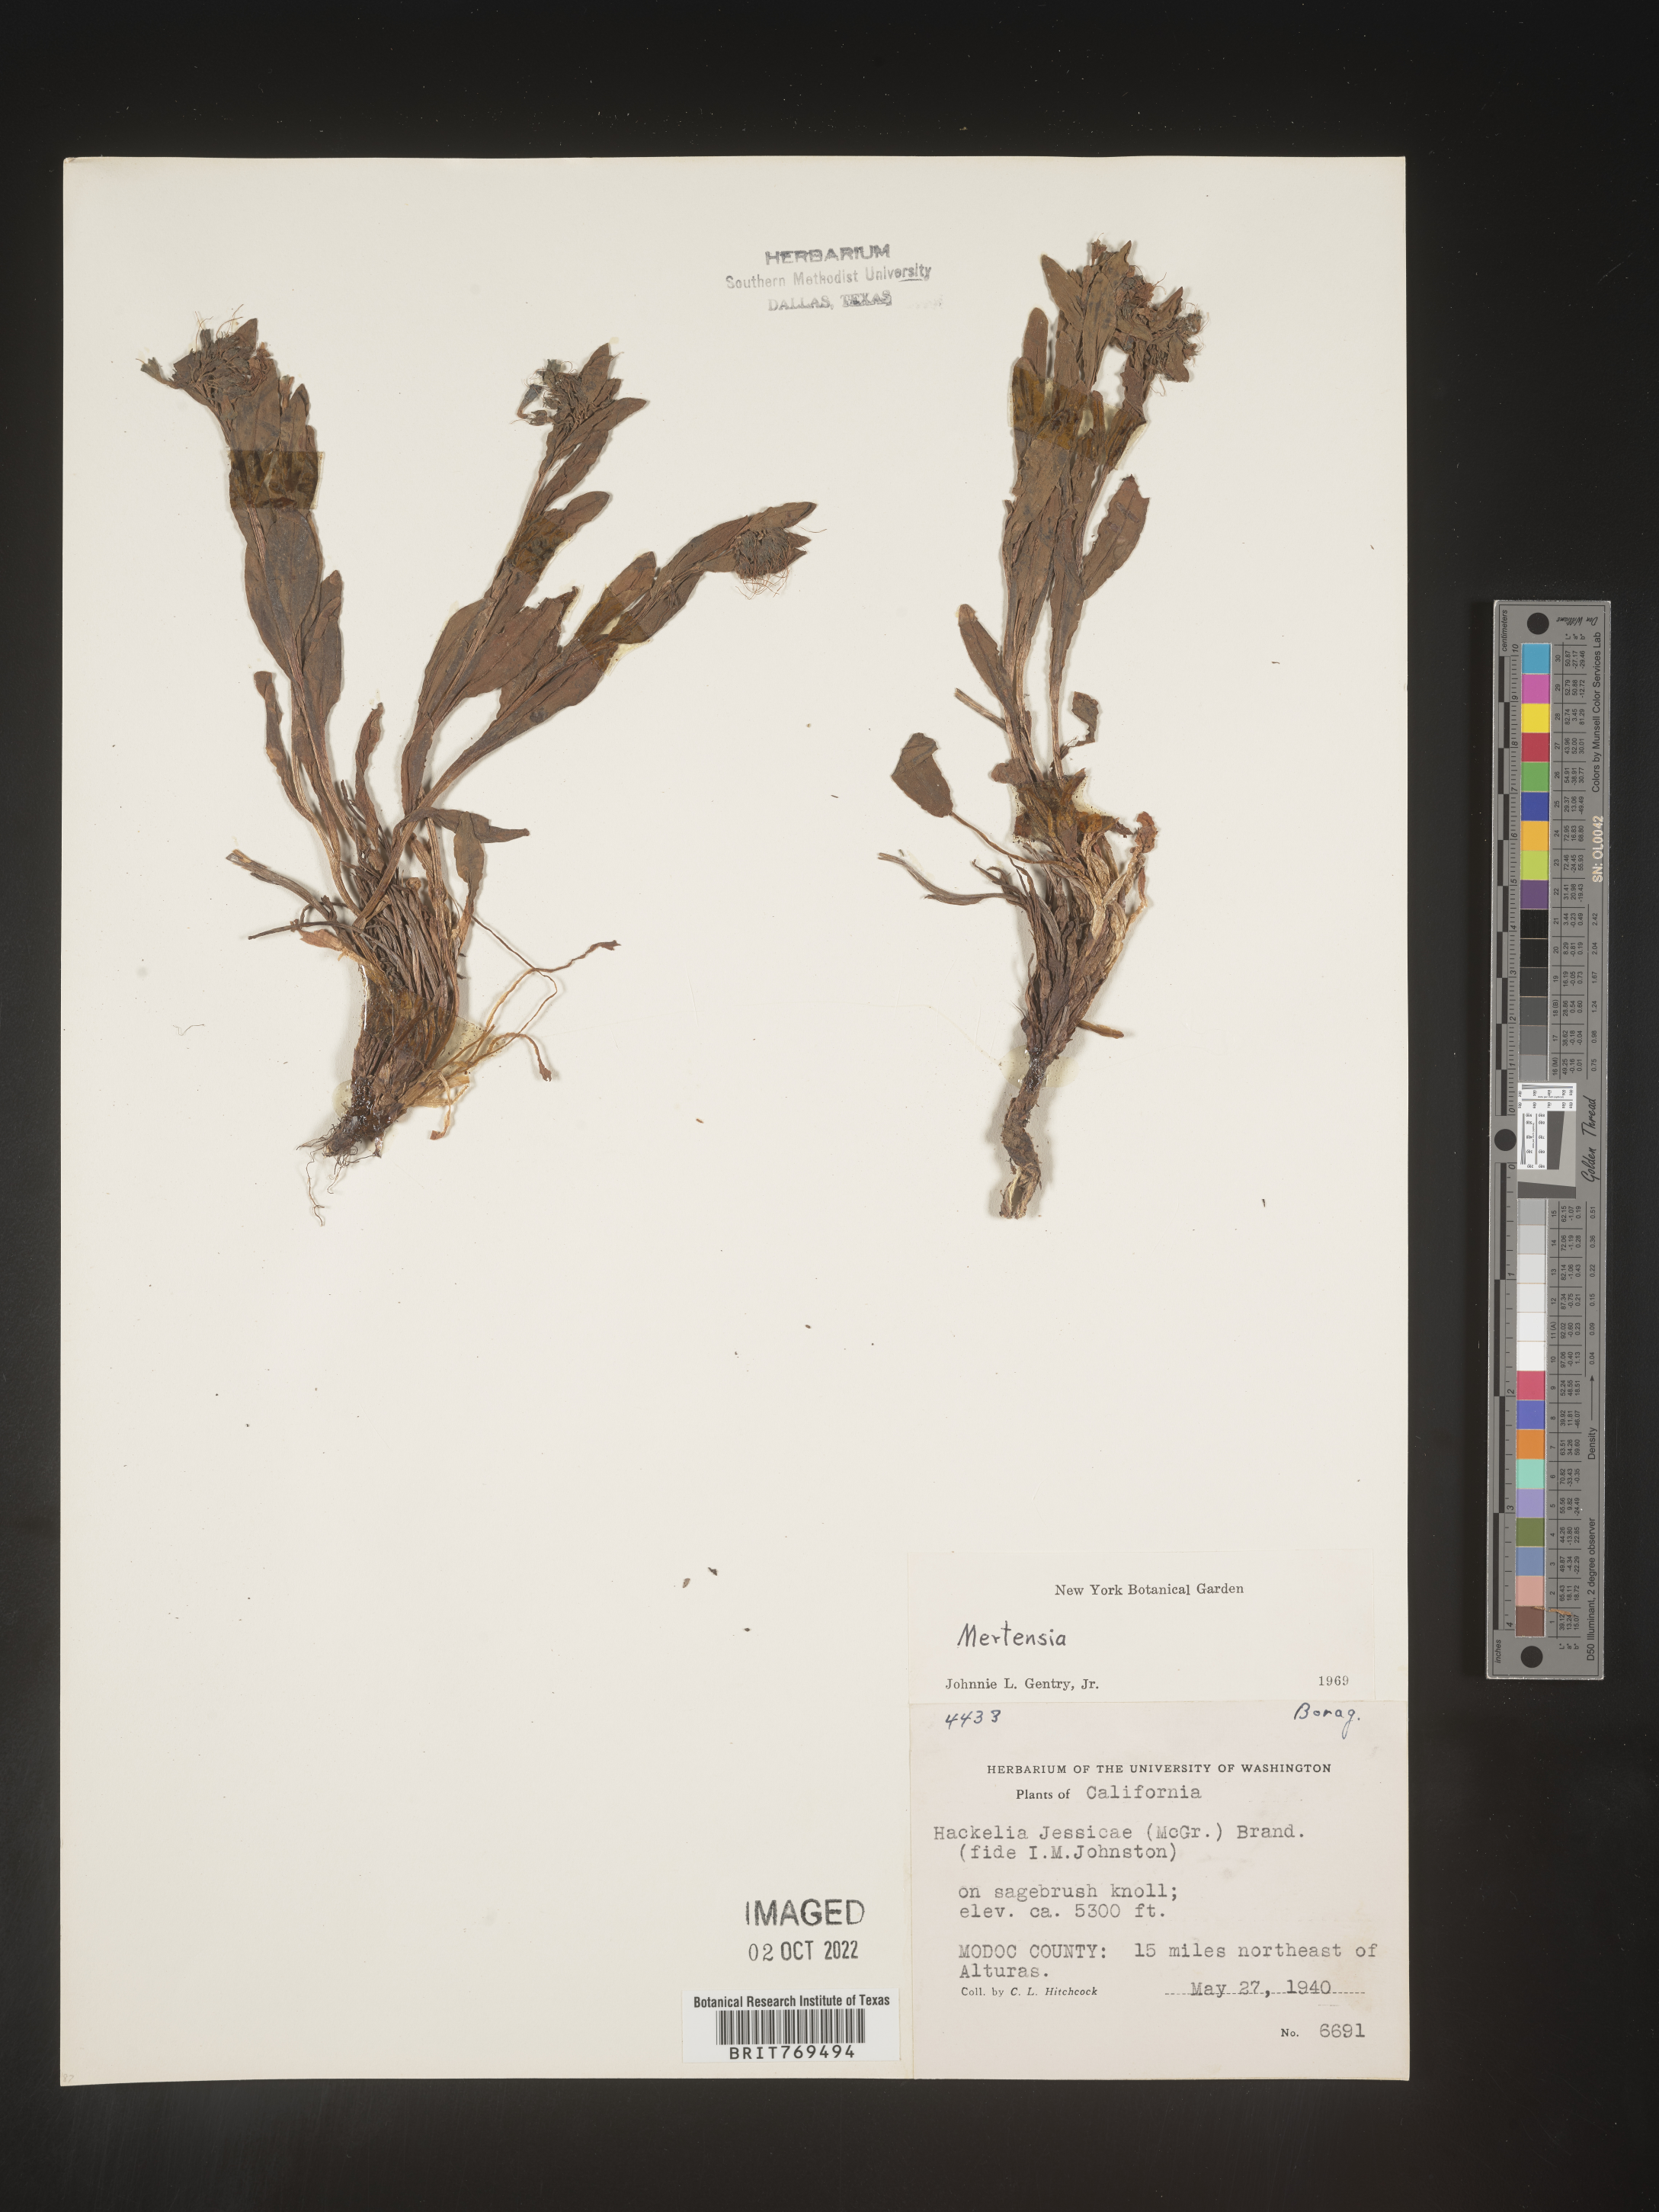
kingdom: Plantae
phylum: Tracheophyta
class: Magnoliopsida
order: Boraginales
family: Boraginaceae
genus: Mertensia
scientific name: Mertensia
